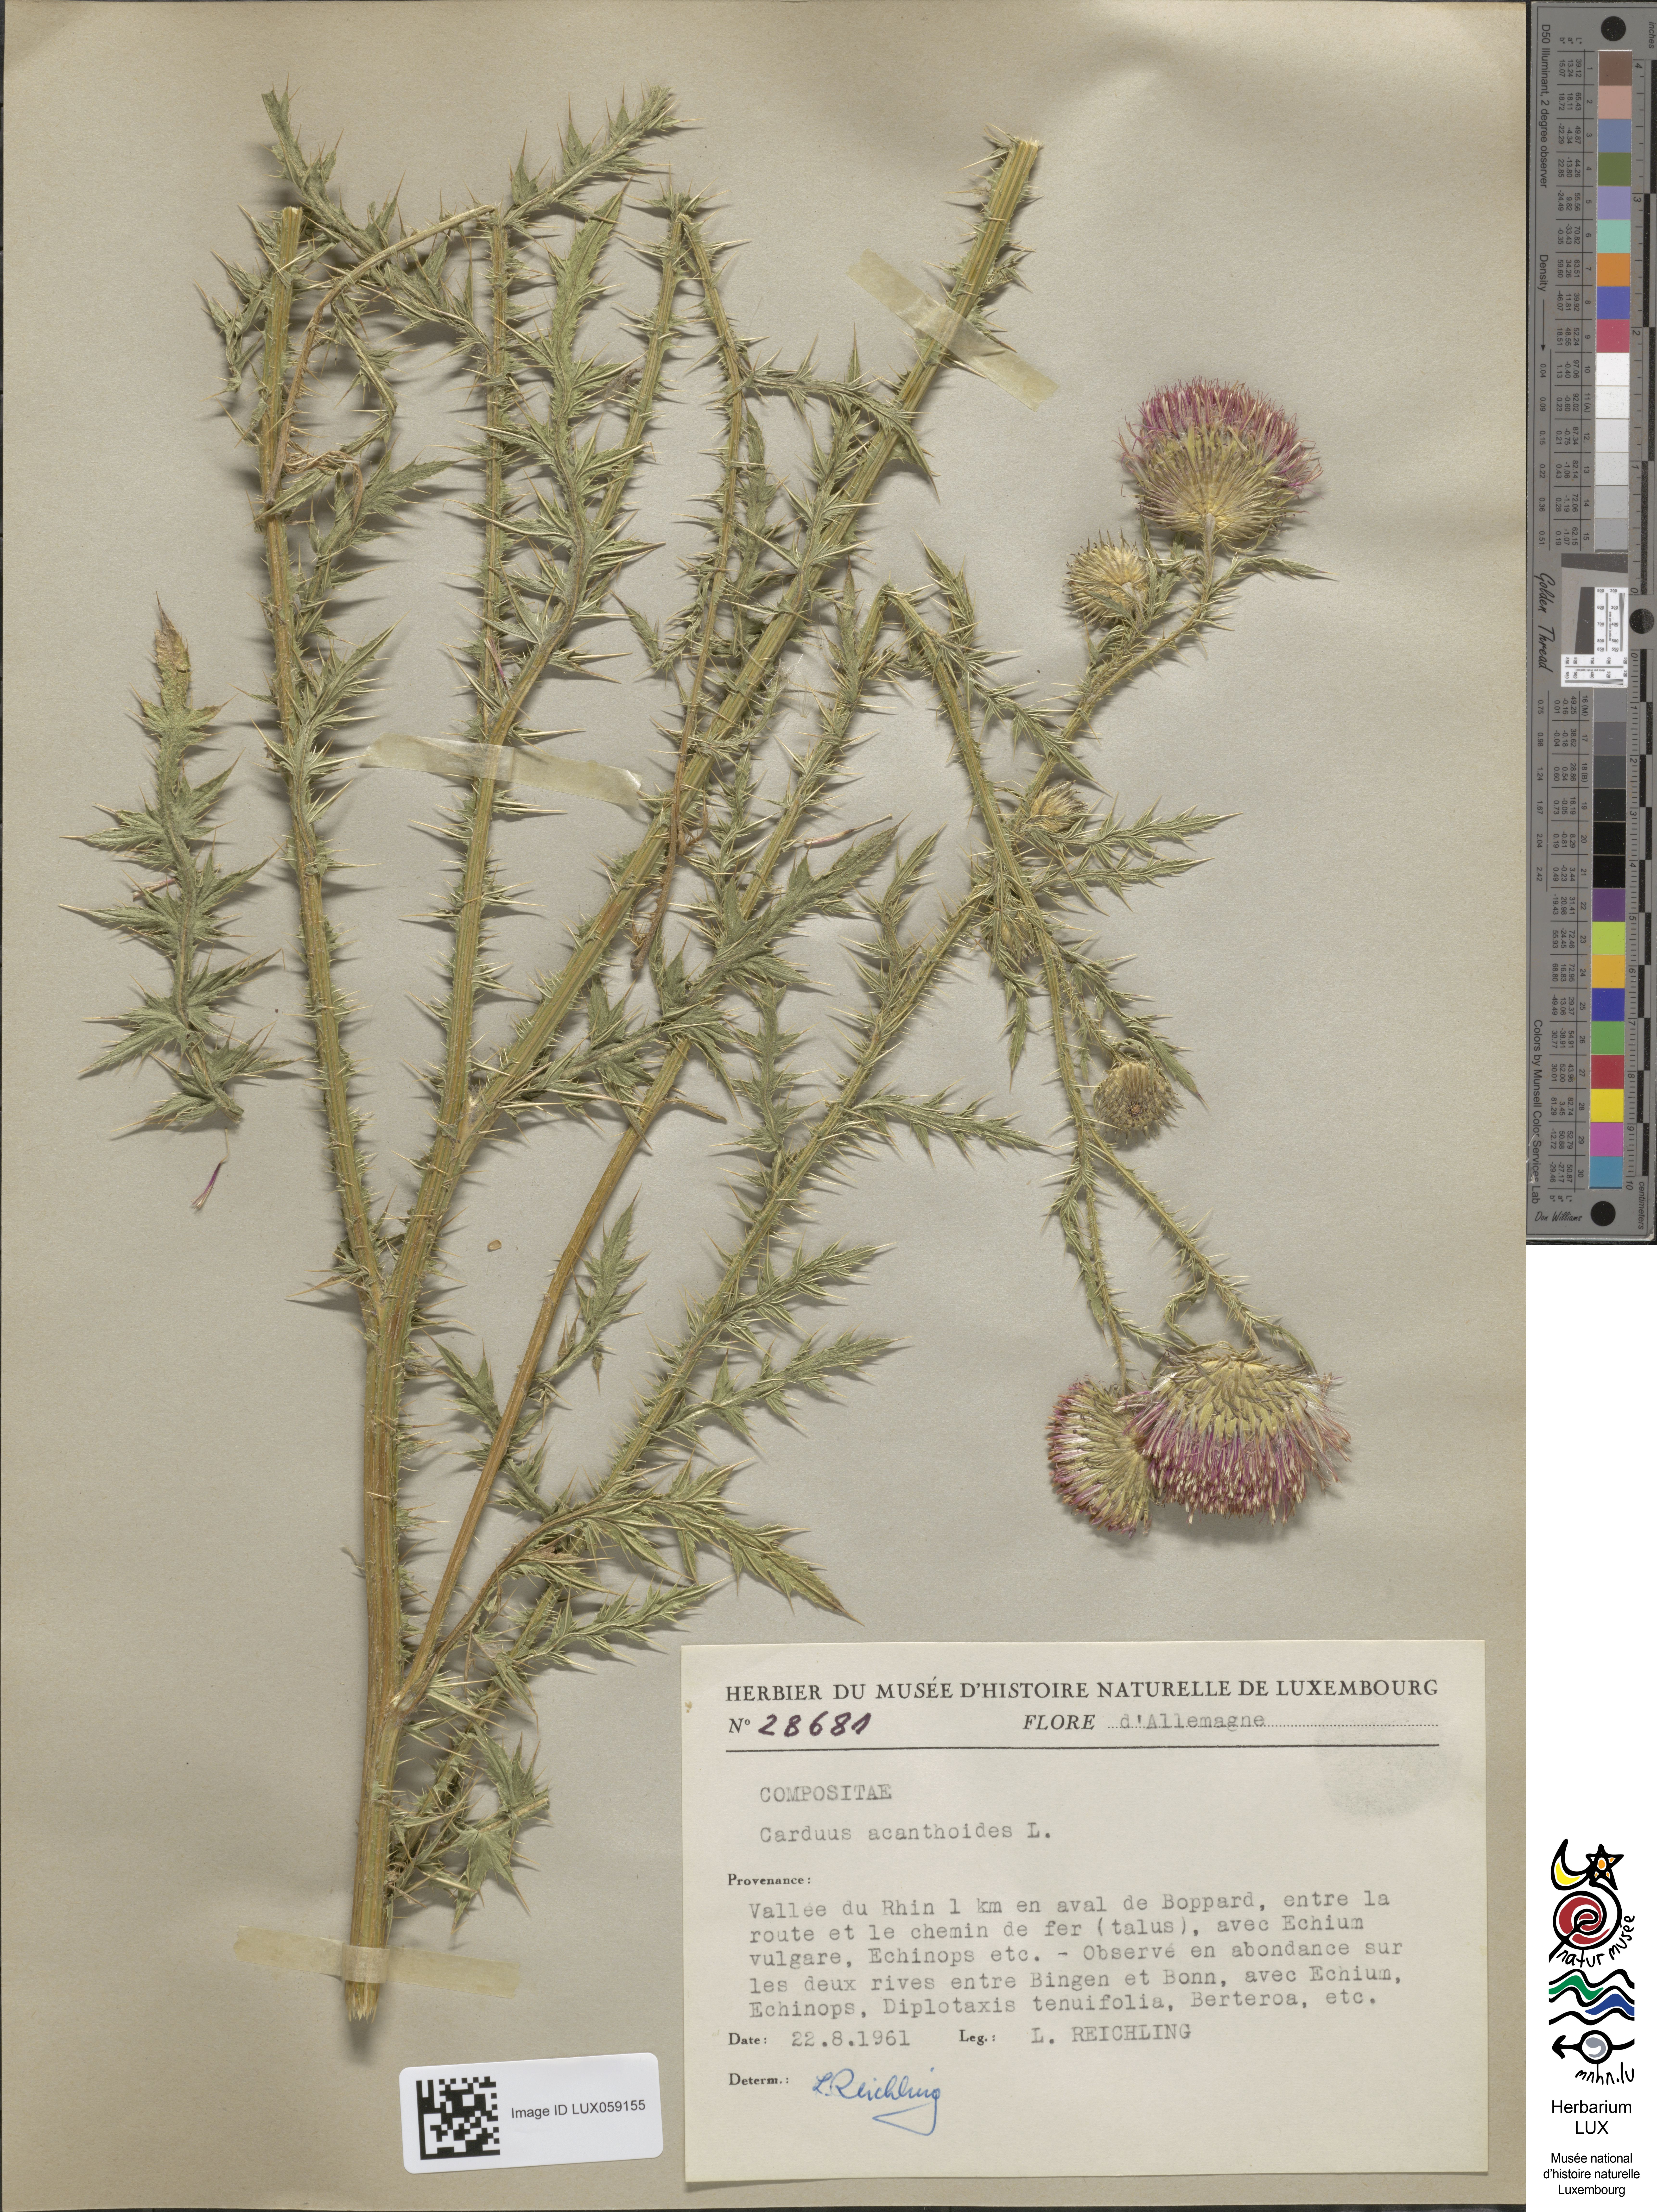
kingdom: Plantae
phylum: Tracheophyta
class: Magnoliopsida
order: Asterales
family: Asteraceae
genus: Carduus
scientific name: Carduus acanthoides
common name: Plumeless thistle
